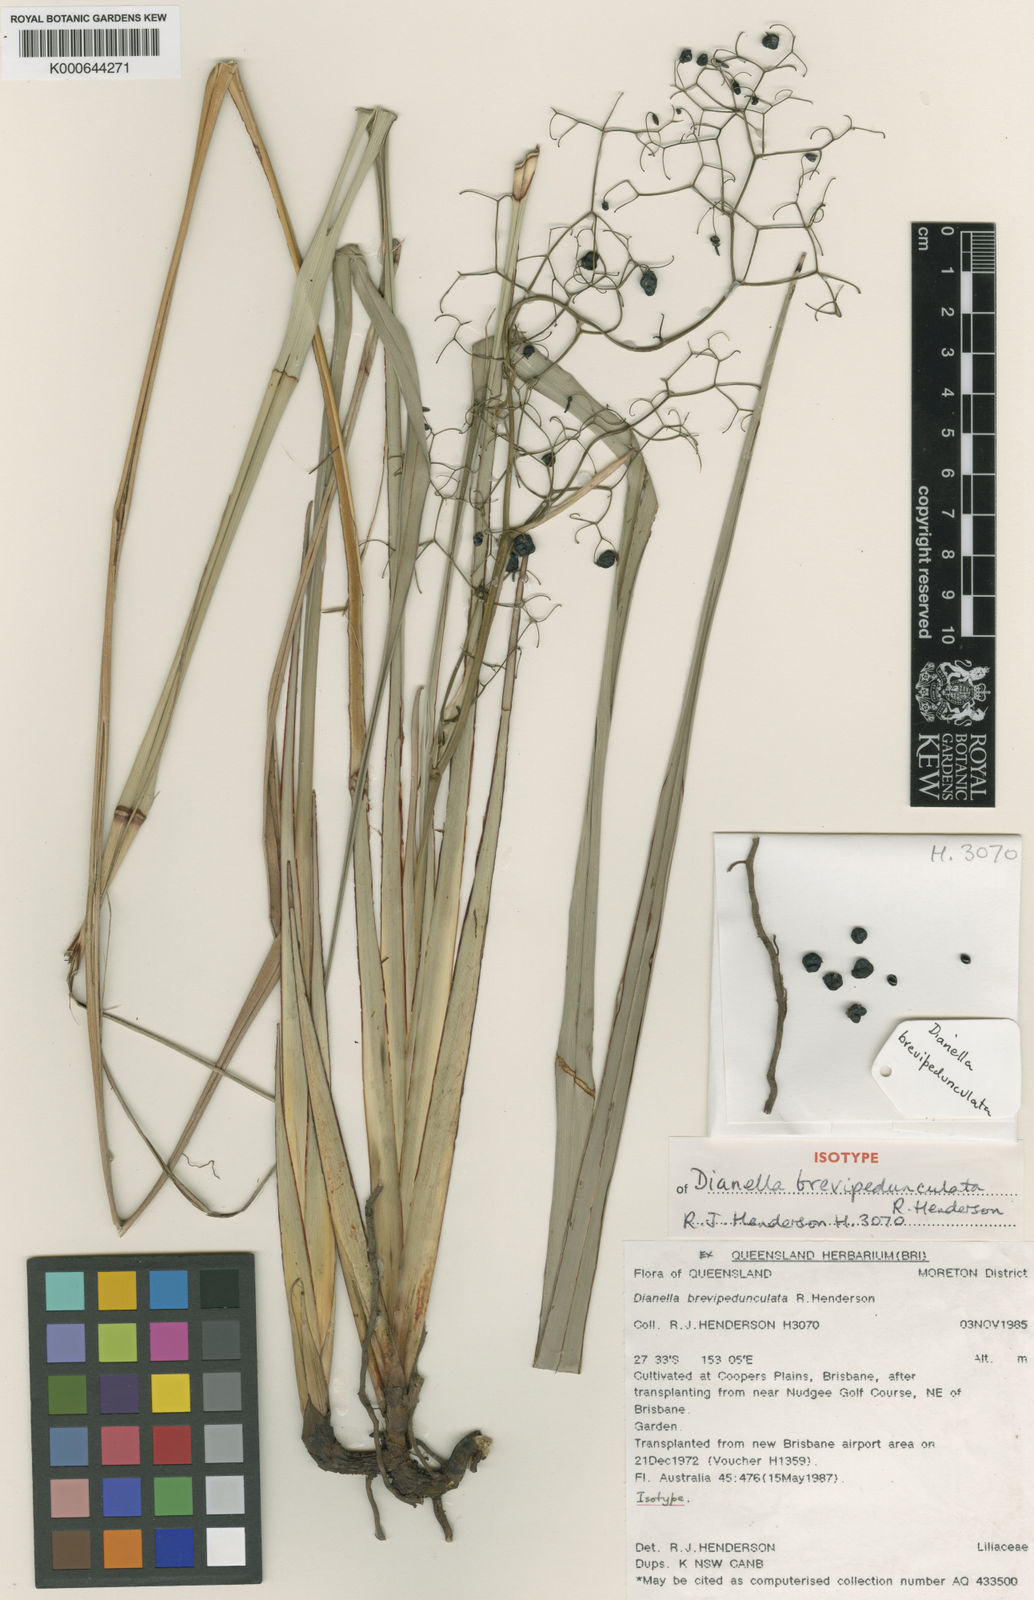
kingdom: Plantae
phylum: Tracheophyta
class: Liliopsida
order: Asparagales
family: Asphodelaceae
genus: Dianella
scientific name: Dianella brevipedunculata
